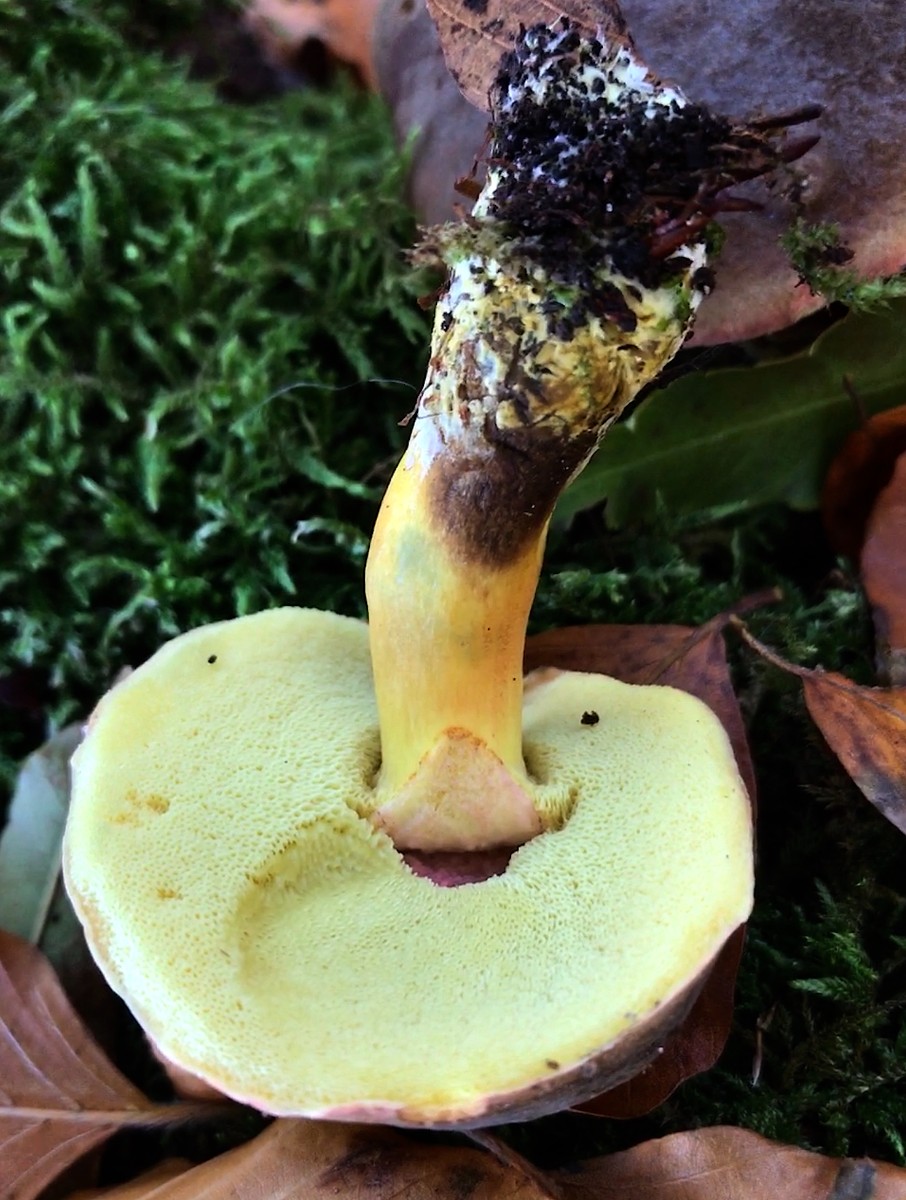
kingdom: Fungi
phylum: Basidiomycota
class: Agaricomycetes
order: Boletales
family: Boletaceae
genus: Xerocomellus
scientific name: Xerocomellus pruinatus
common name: dugget rørhat
